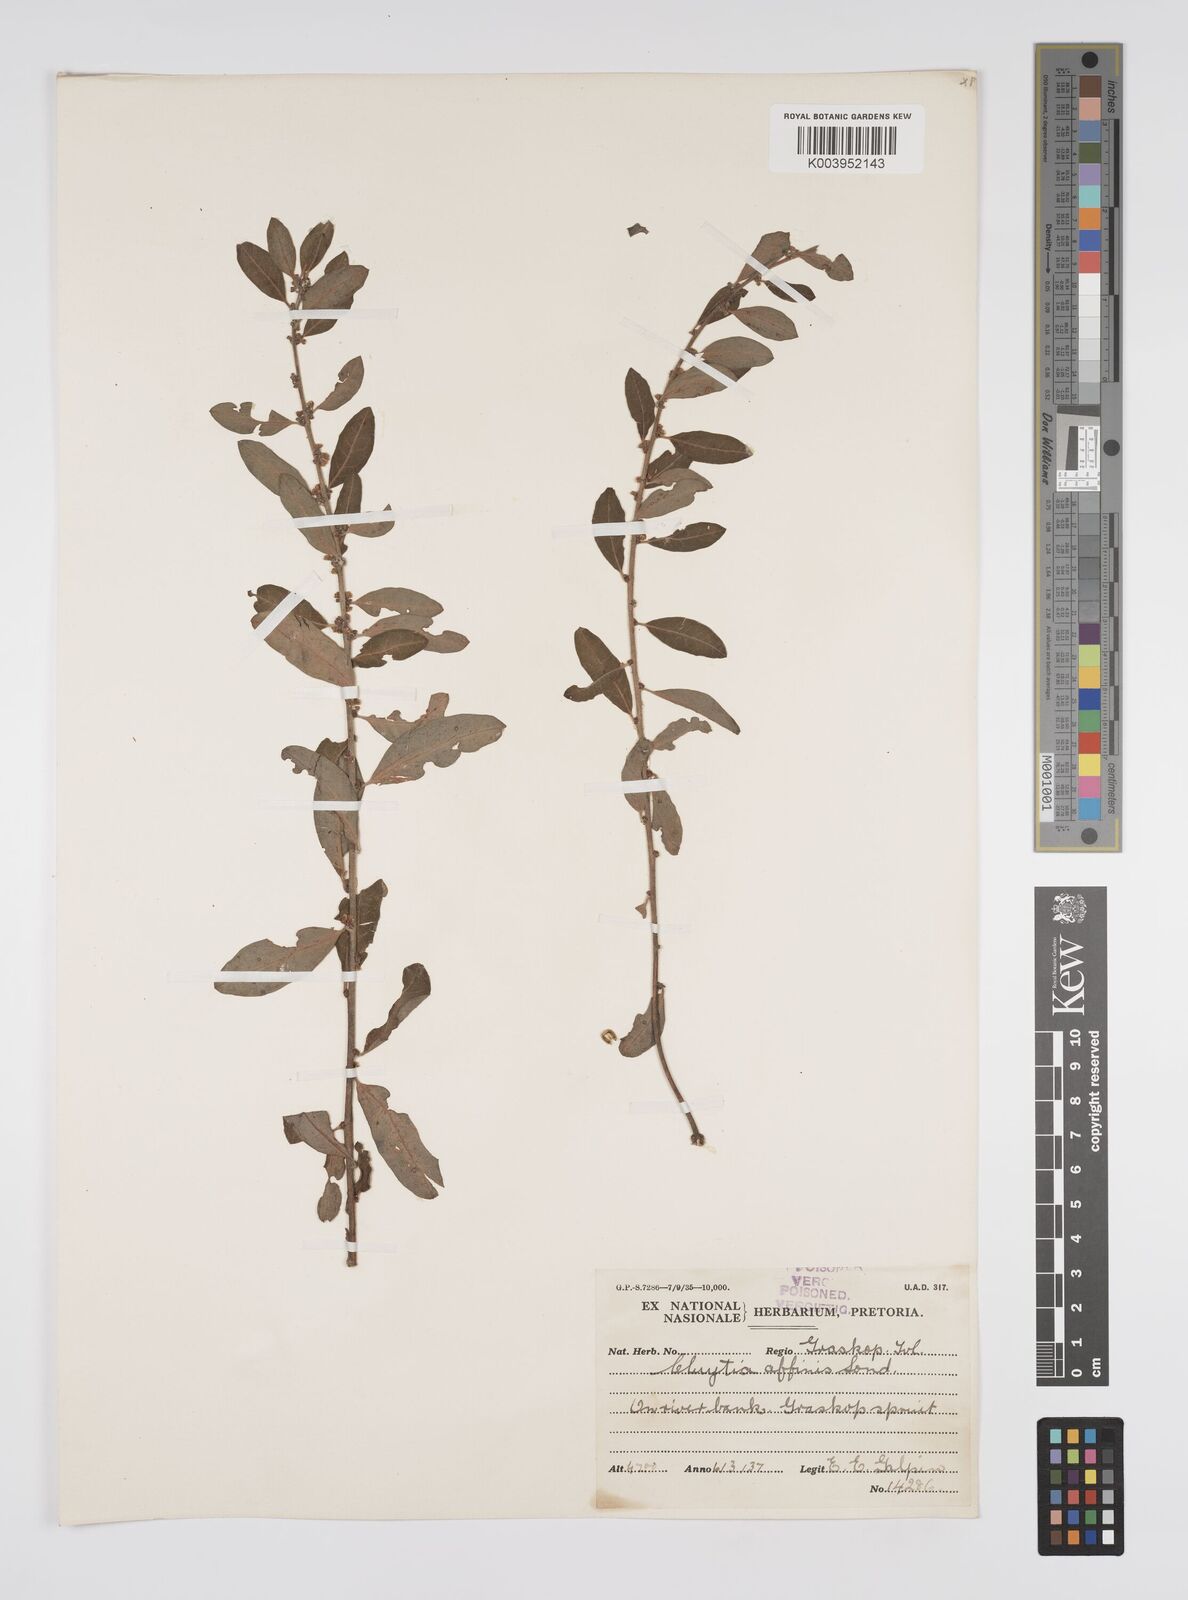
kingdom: Plantae
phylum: Tracheophyta
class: Magnoliopsida
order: Malpighiales
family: Peraceae
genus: Clutia
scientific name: Clutia affinis
